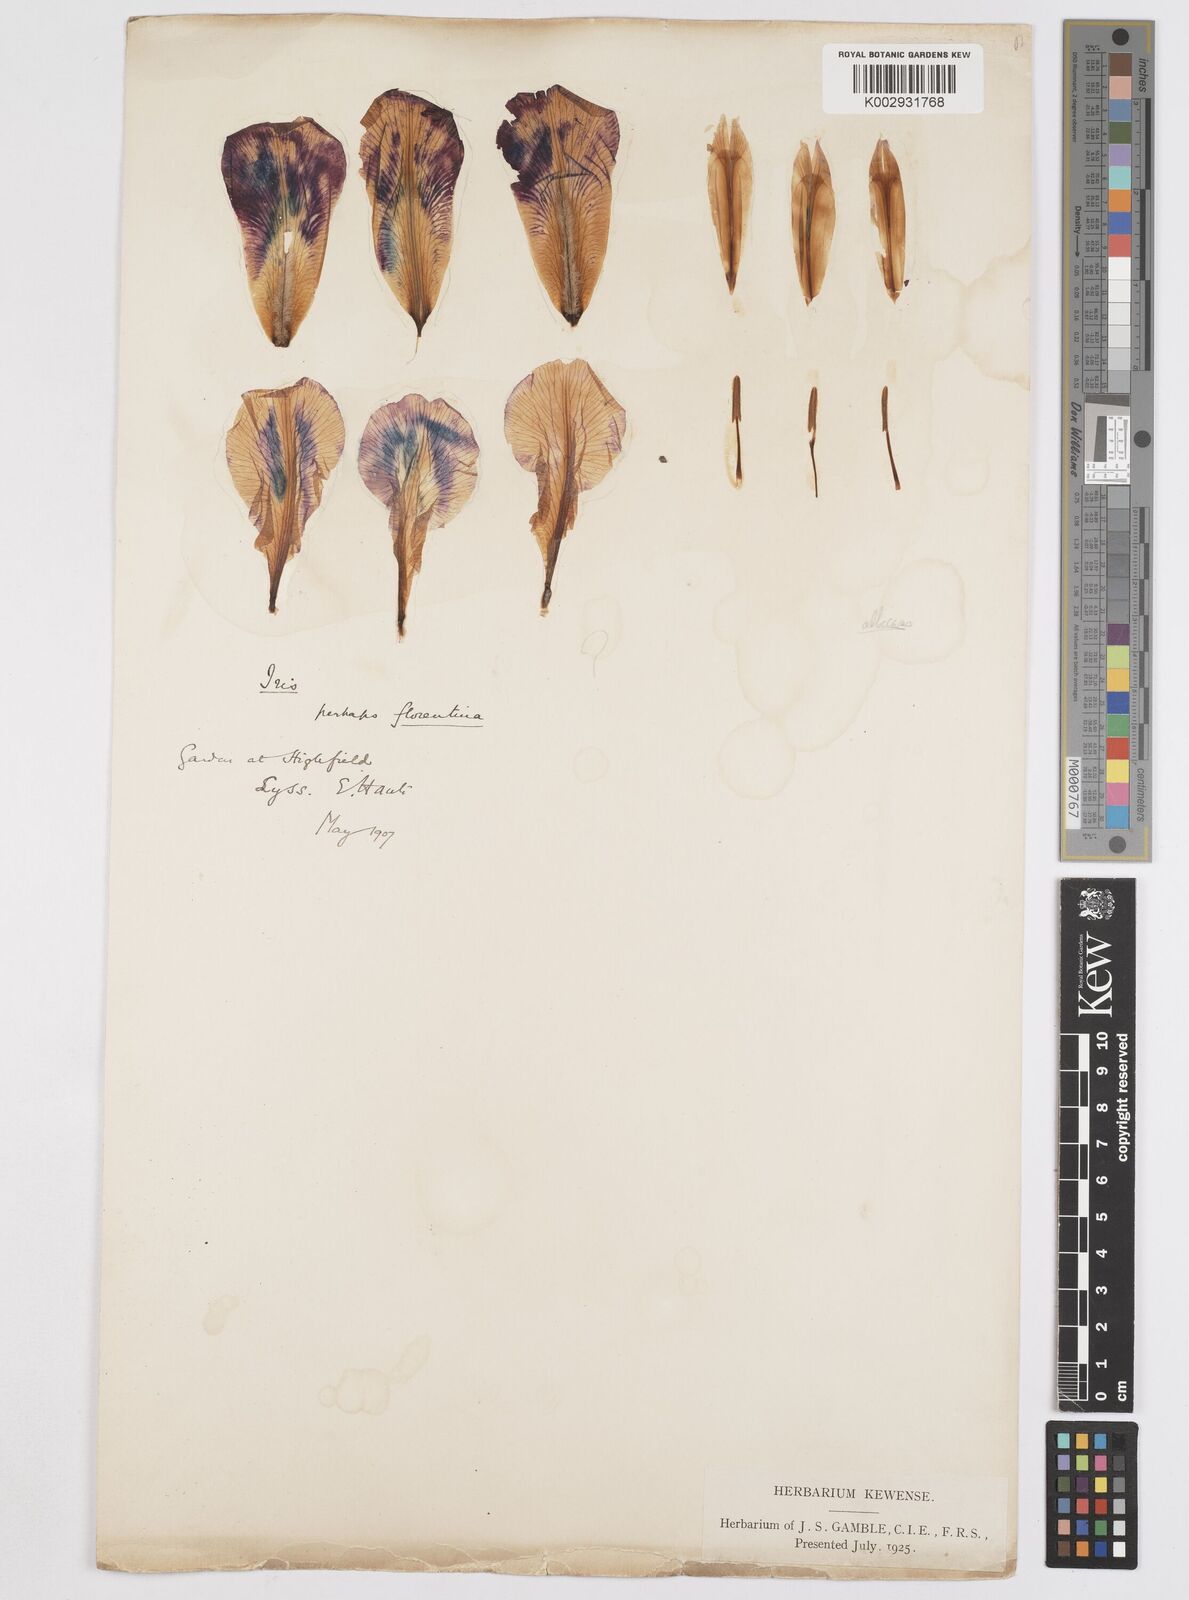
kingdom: Plantae
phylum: Tracheophyta
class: Liliopsida
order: Asparagales
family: Iridaceae
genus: Iris
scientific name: Iris florentina
